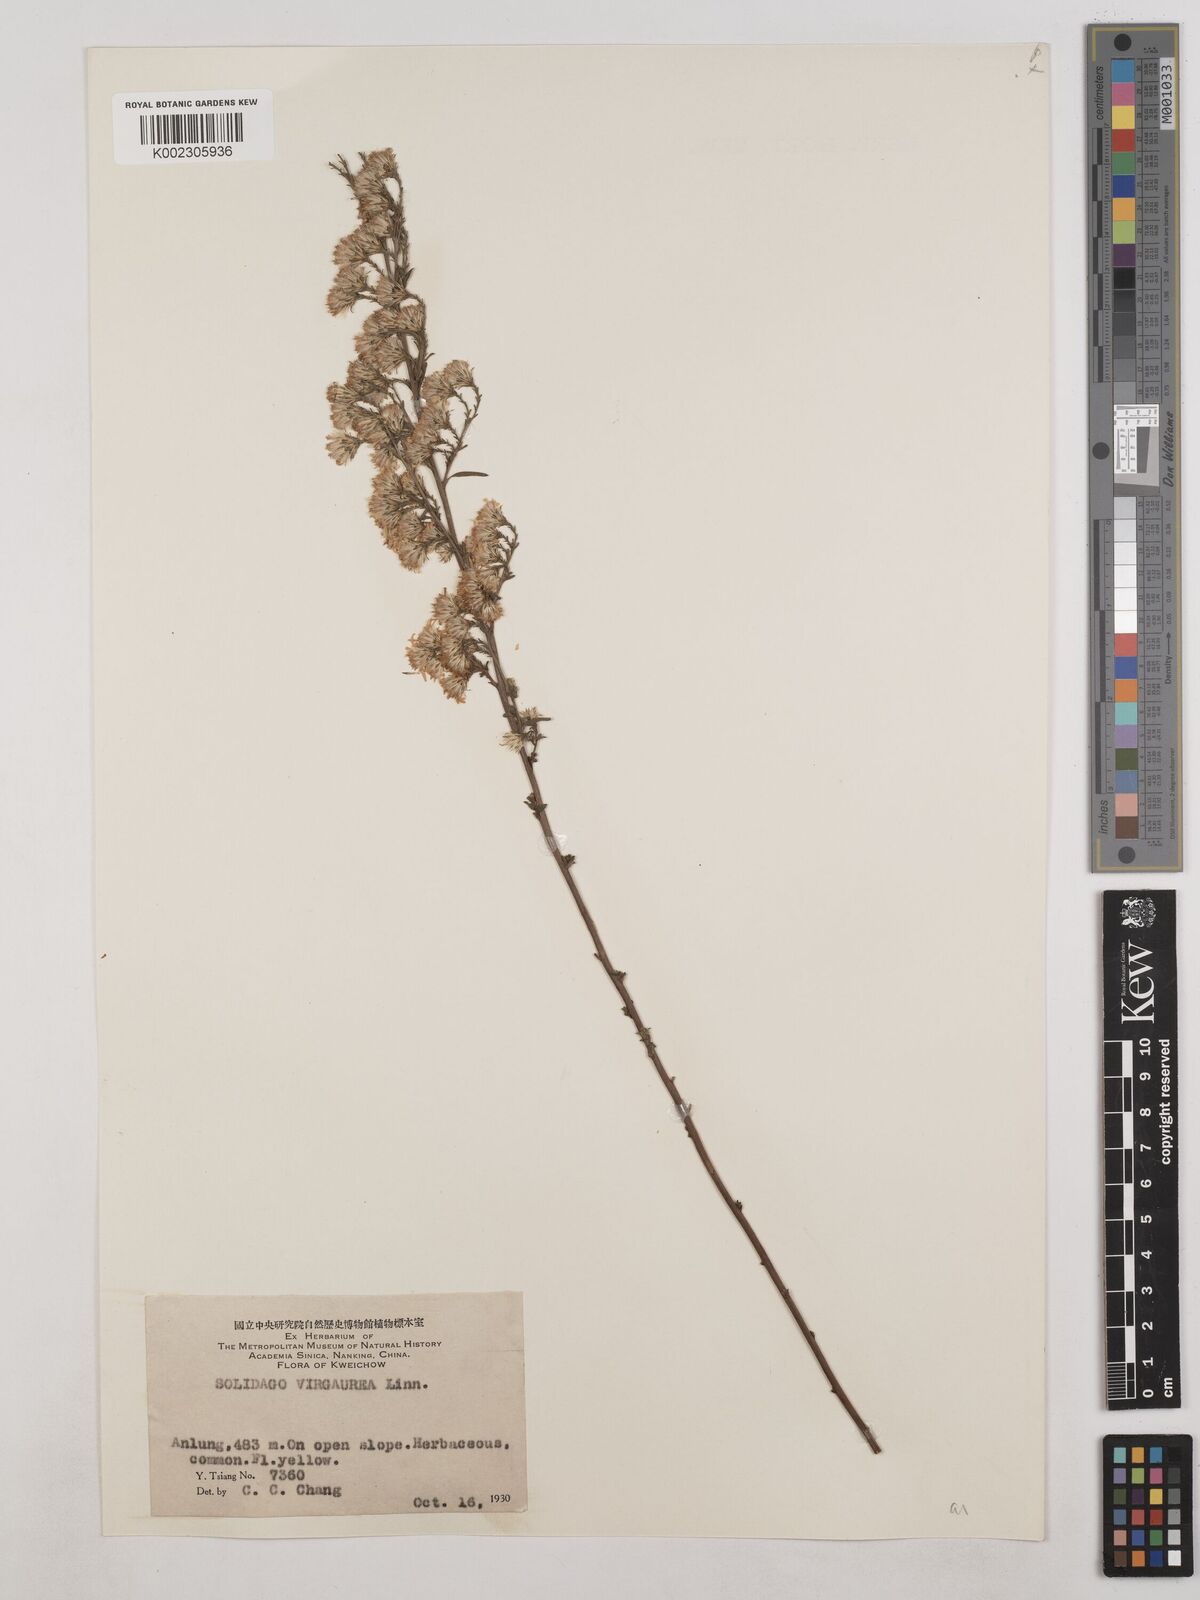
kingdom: Plantae
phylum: Tracheophyta
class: Magnoliopsida
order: Asterales
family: Asteraceae
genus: Solidago
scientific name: Solidago virgaurea
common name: Goldenrod
